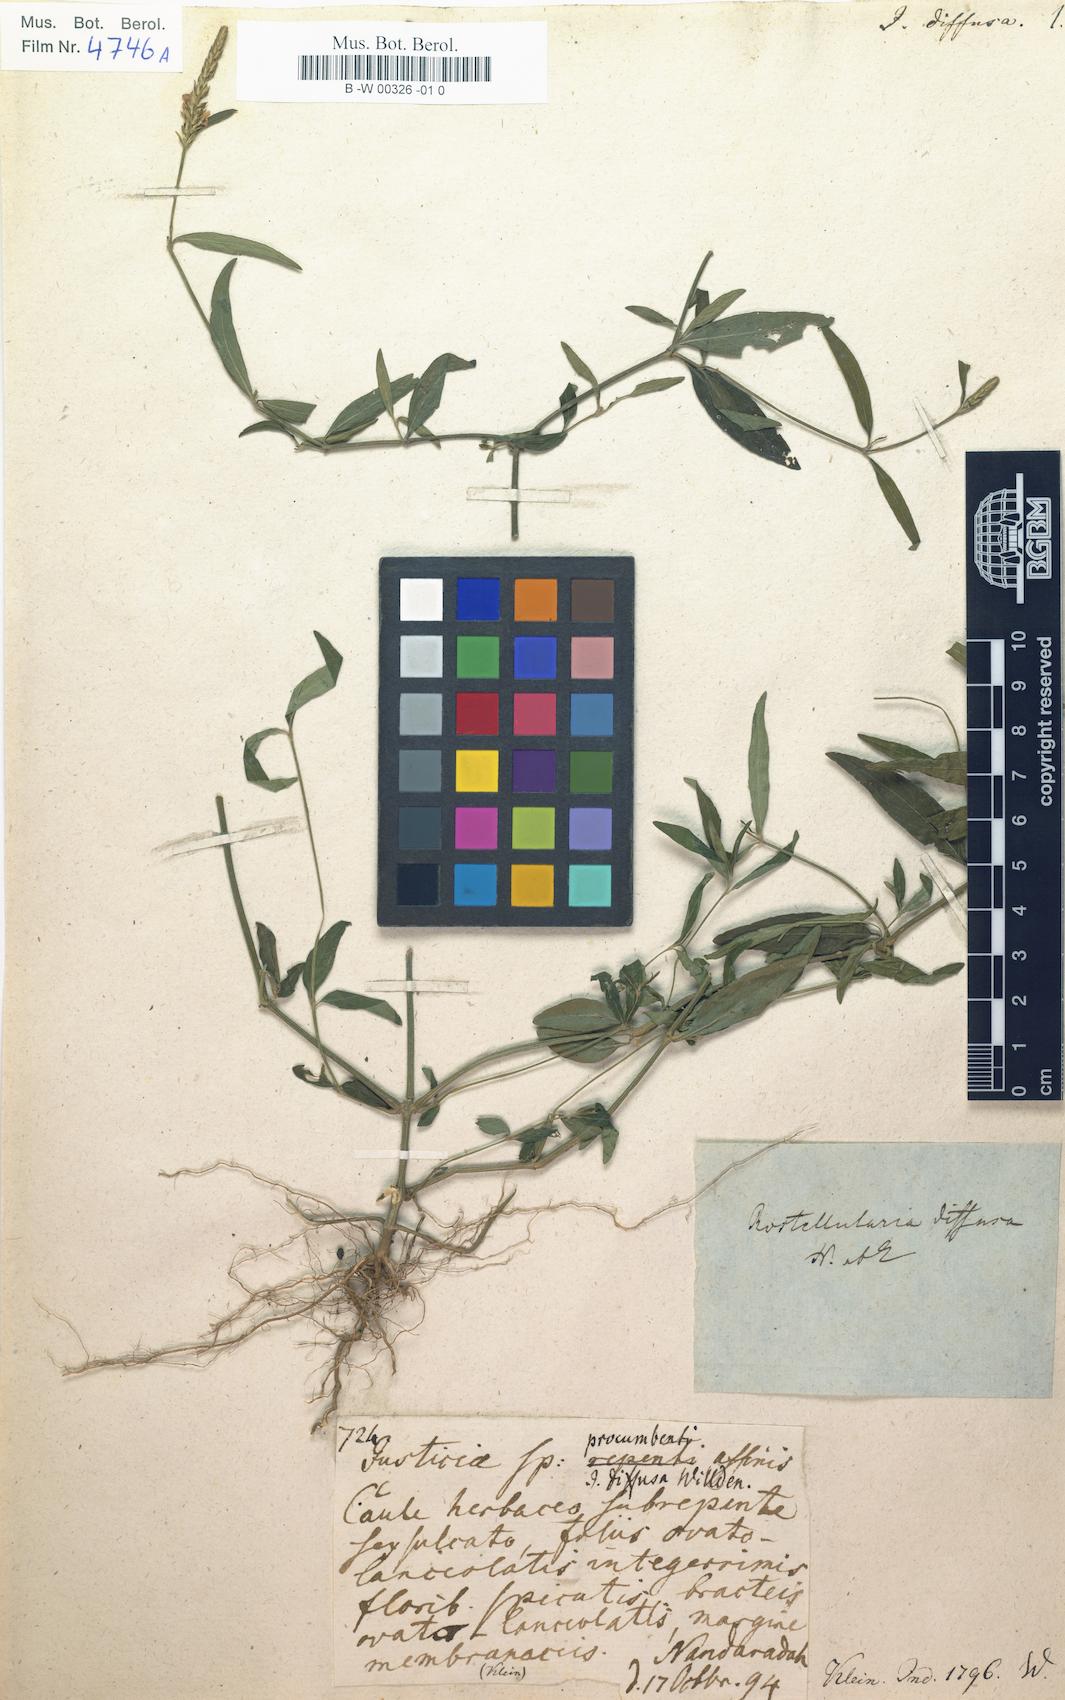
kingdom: Plantae
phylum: Tracheophyta
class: Magnoliopsida
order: Lamiales
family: Acanthaceae
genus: Rostellularia
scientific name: Rostellularia diffusa
